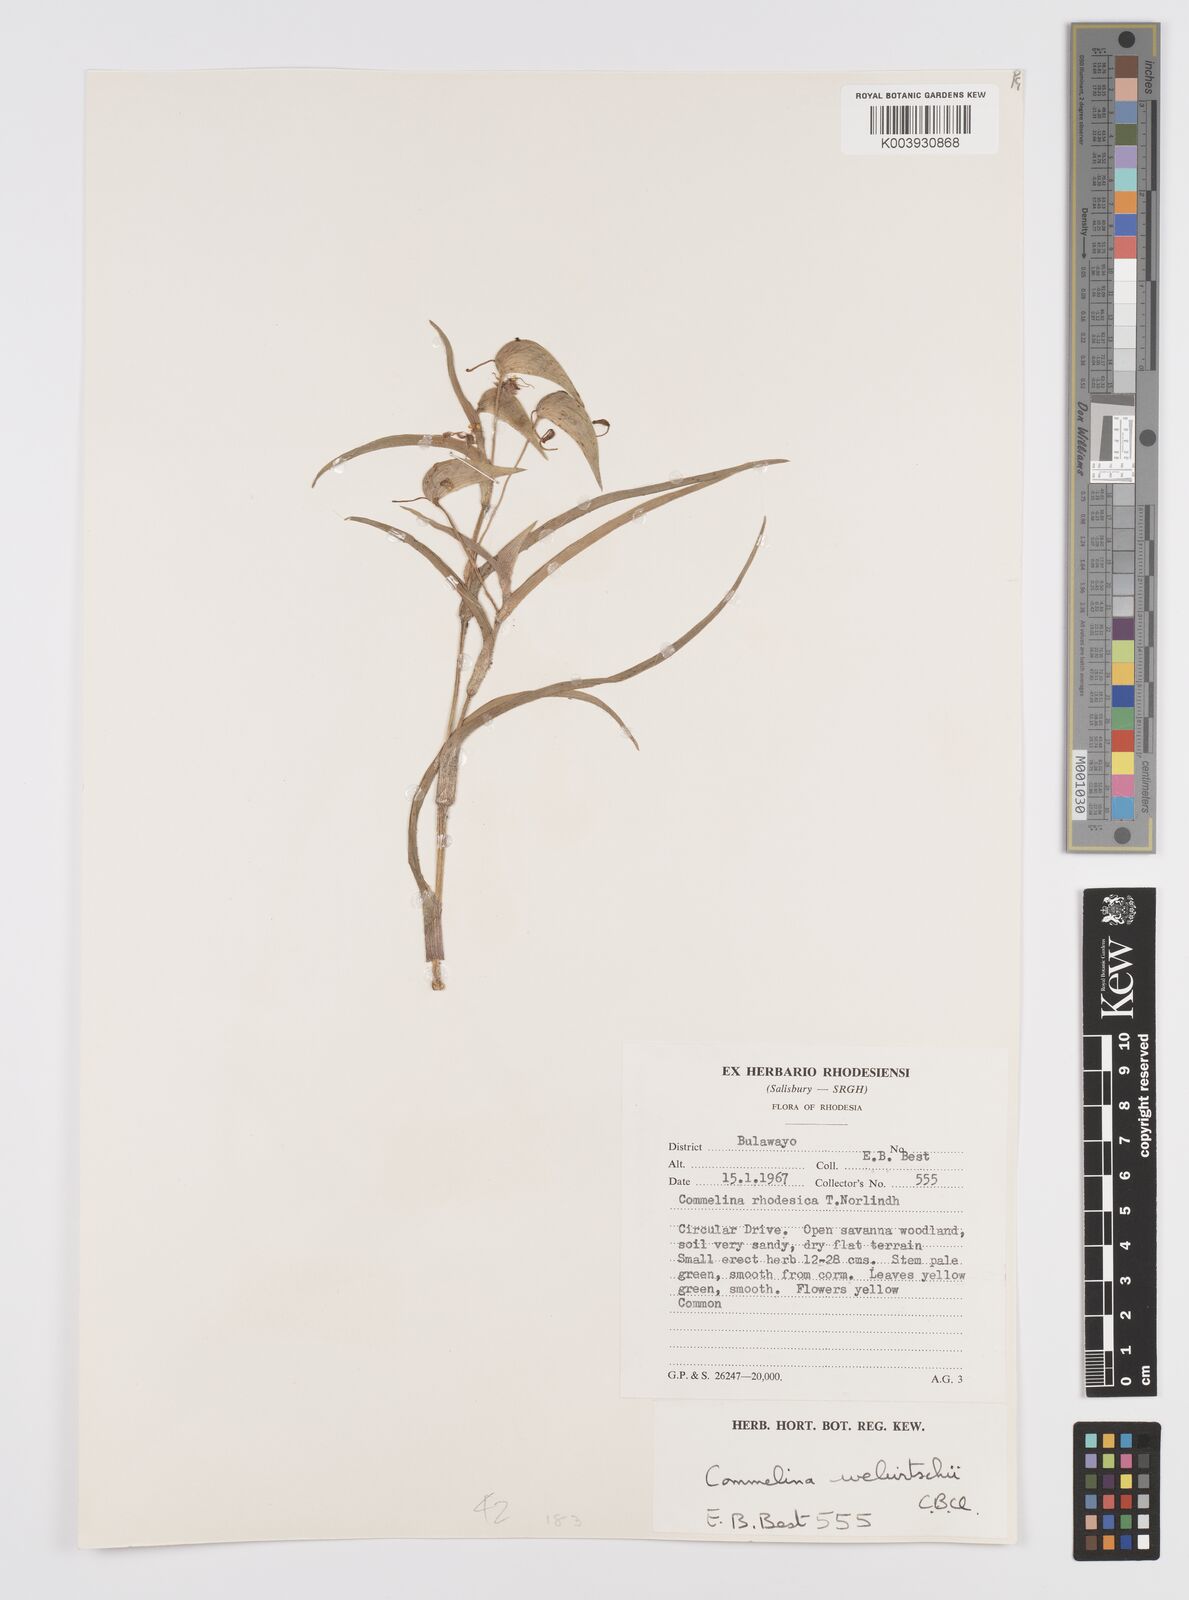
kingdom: Plantae
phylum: Tracheophyta
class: Liliopsida
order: Commelinales
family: Commelinaceae
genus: Commelina
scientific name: Commelina welwitschii
